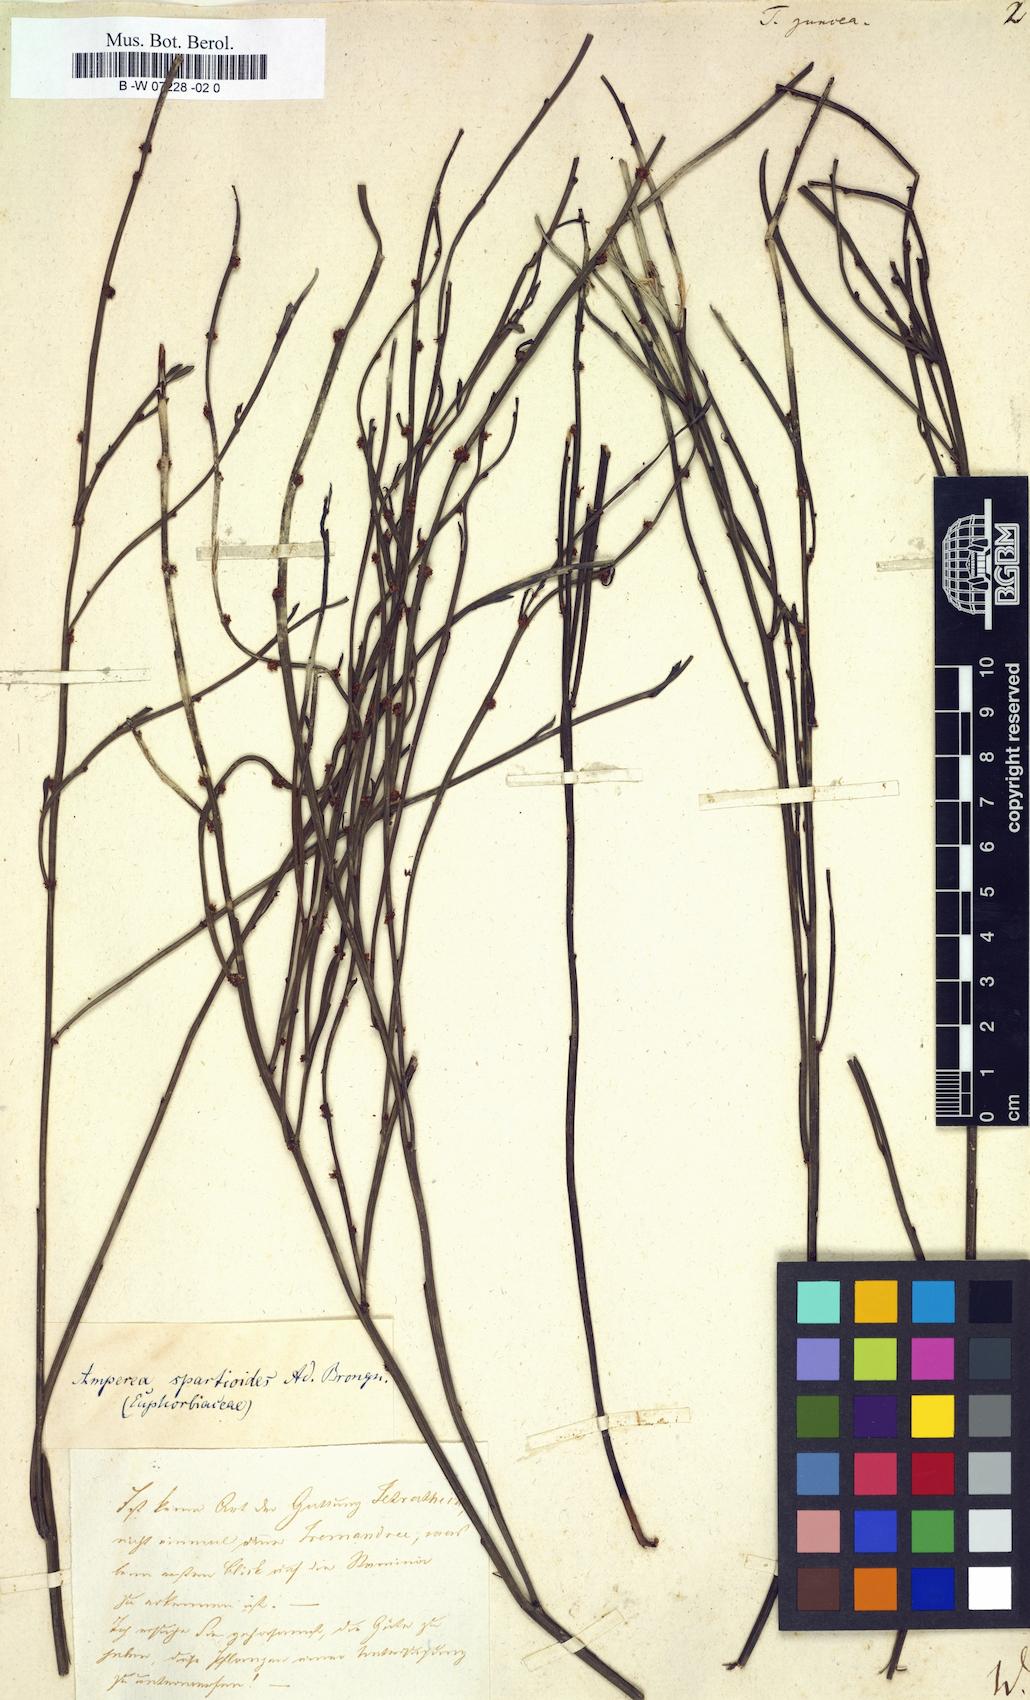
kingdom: Plantae
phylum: Tracheophyta
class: Magnoliopsida
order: Oxalidales
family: Elaeocarpaceae
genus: Tetratheca
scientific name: Tetratheca juncea
